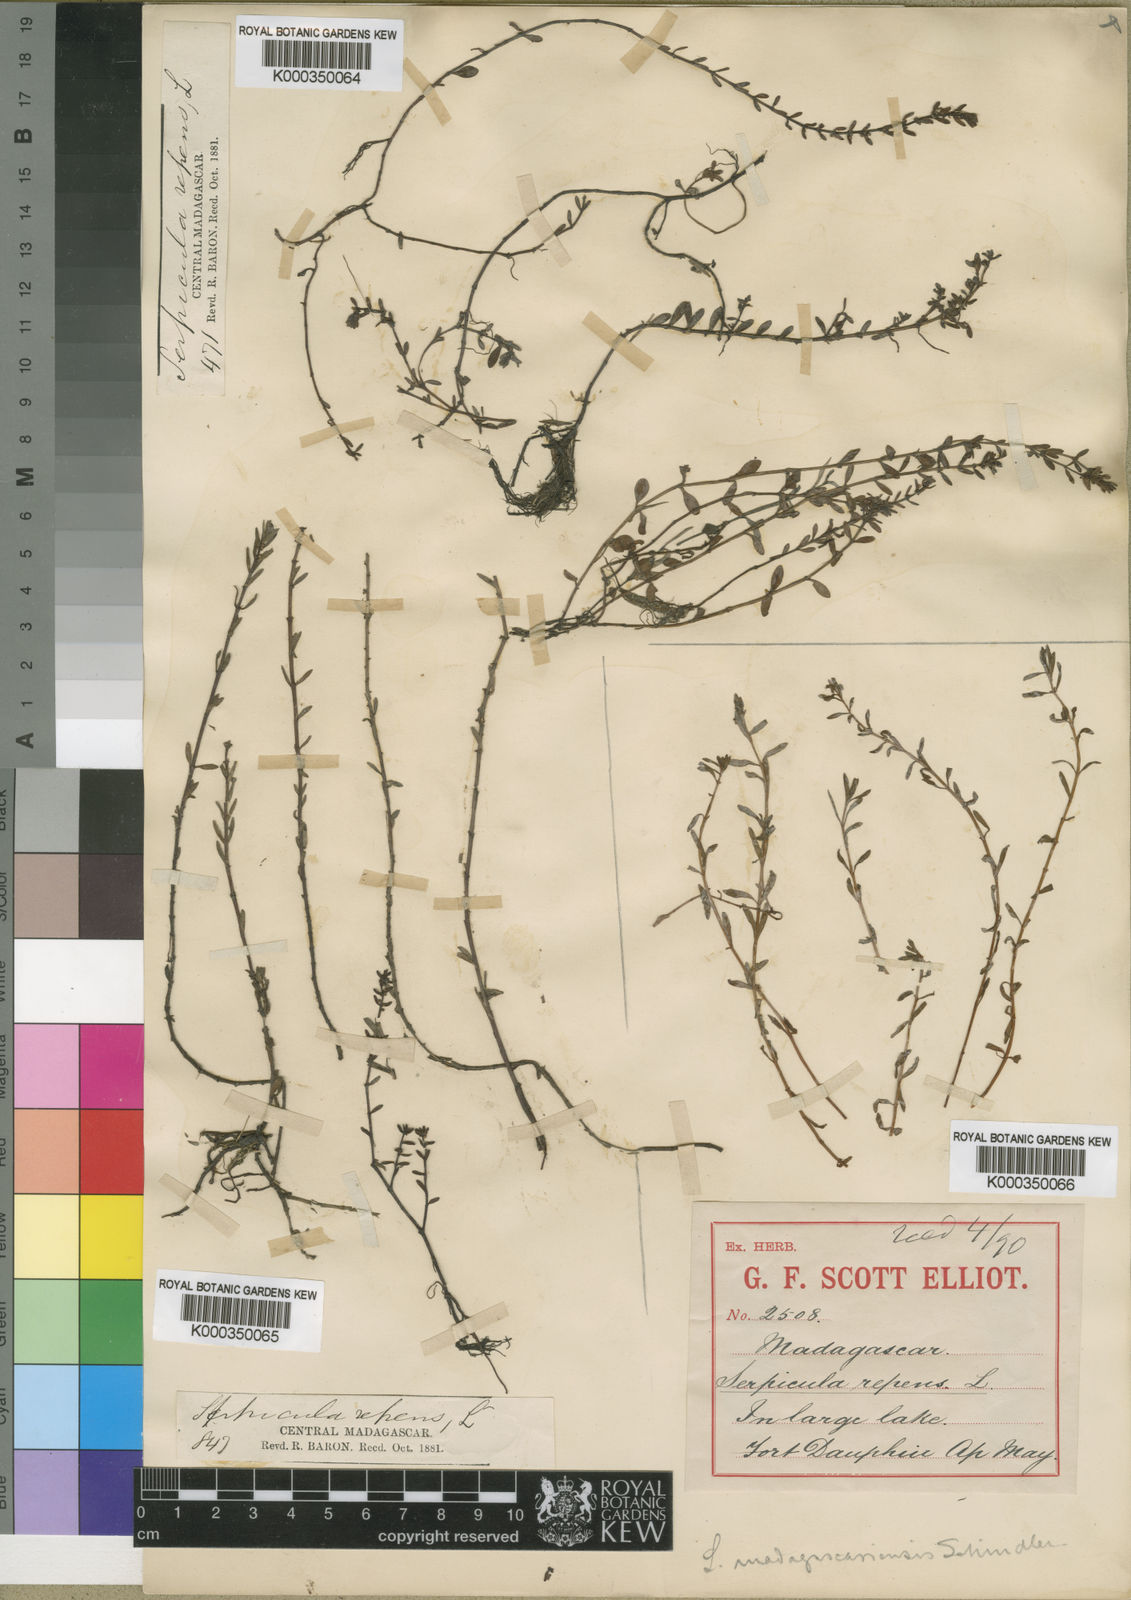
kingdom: Plantae
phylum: Tracheophyta
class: Magnoliopsida
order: Saxifragales
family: Haloragaceae
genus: Laurembergia
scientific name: Laurembergia repens
